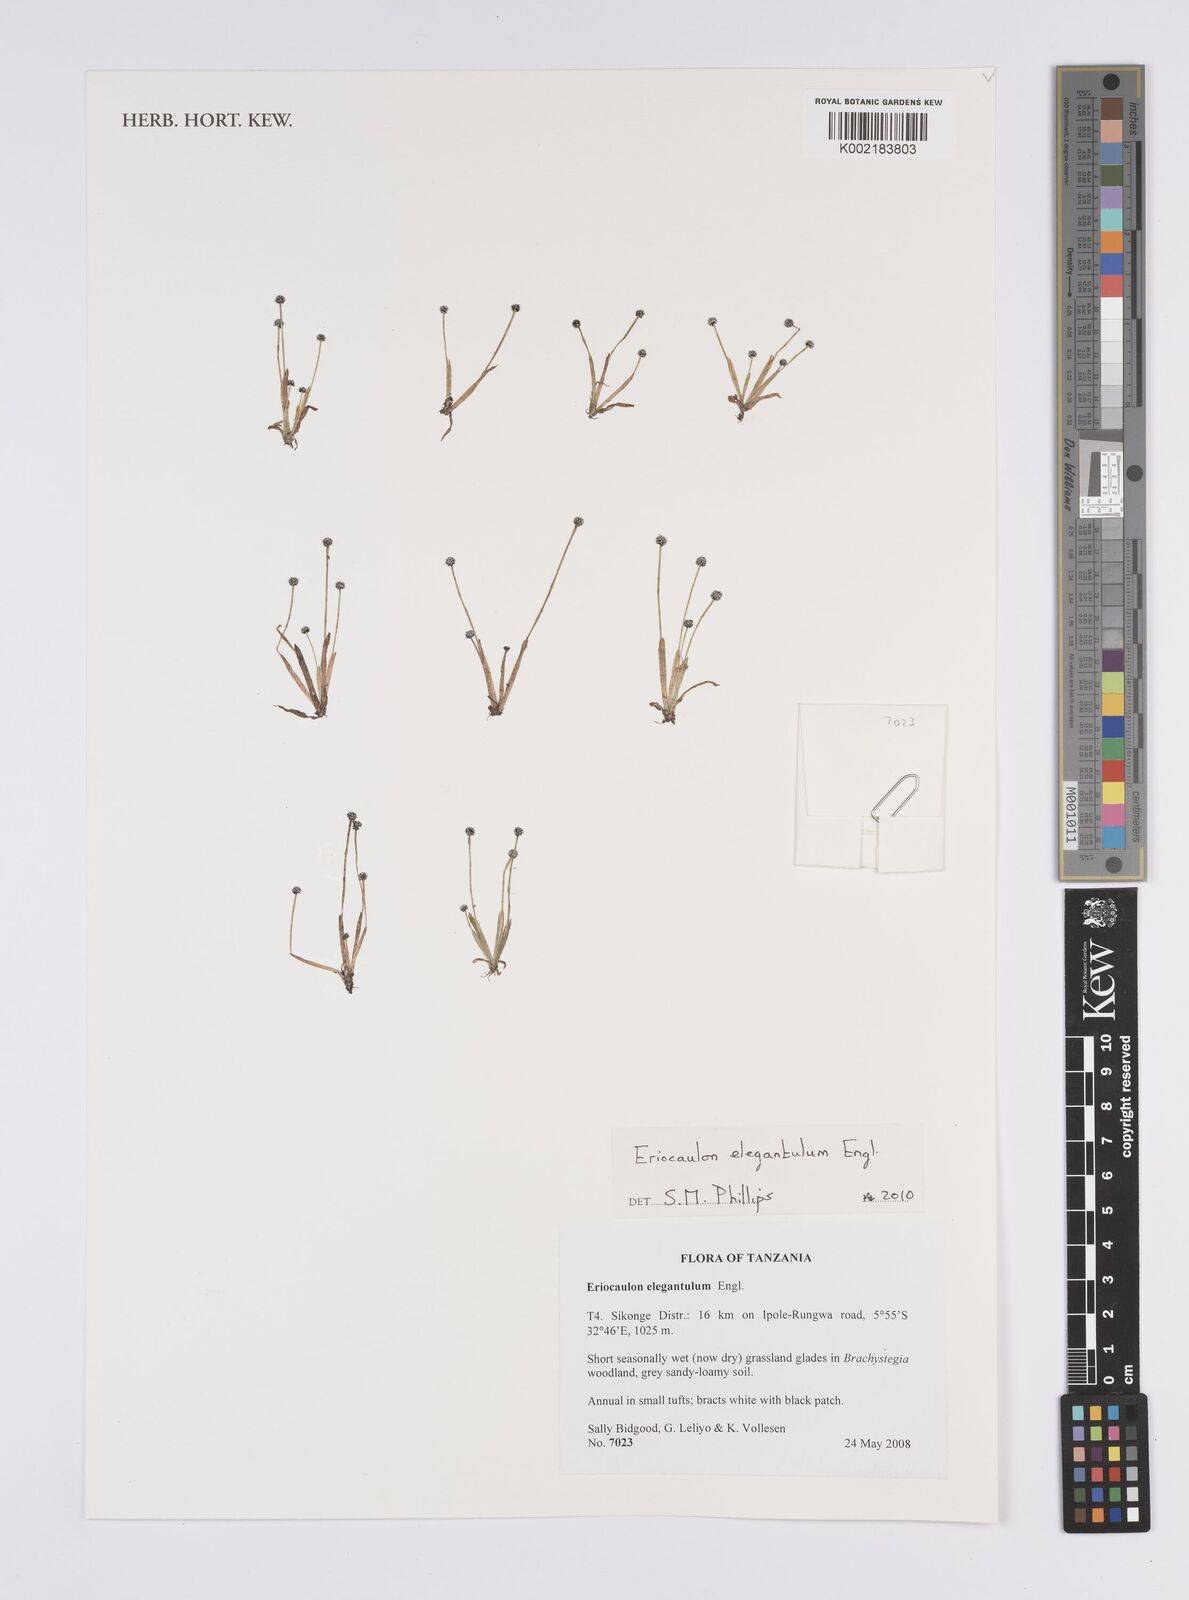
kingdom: Plantae
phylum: Tracheophyta
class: Liliopsida
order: Poales
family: Eriocaulaceae
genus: Eriocaulon
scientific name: Eriocaulon elegantulum
